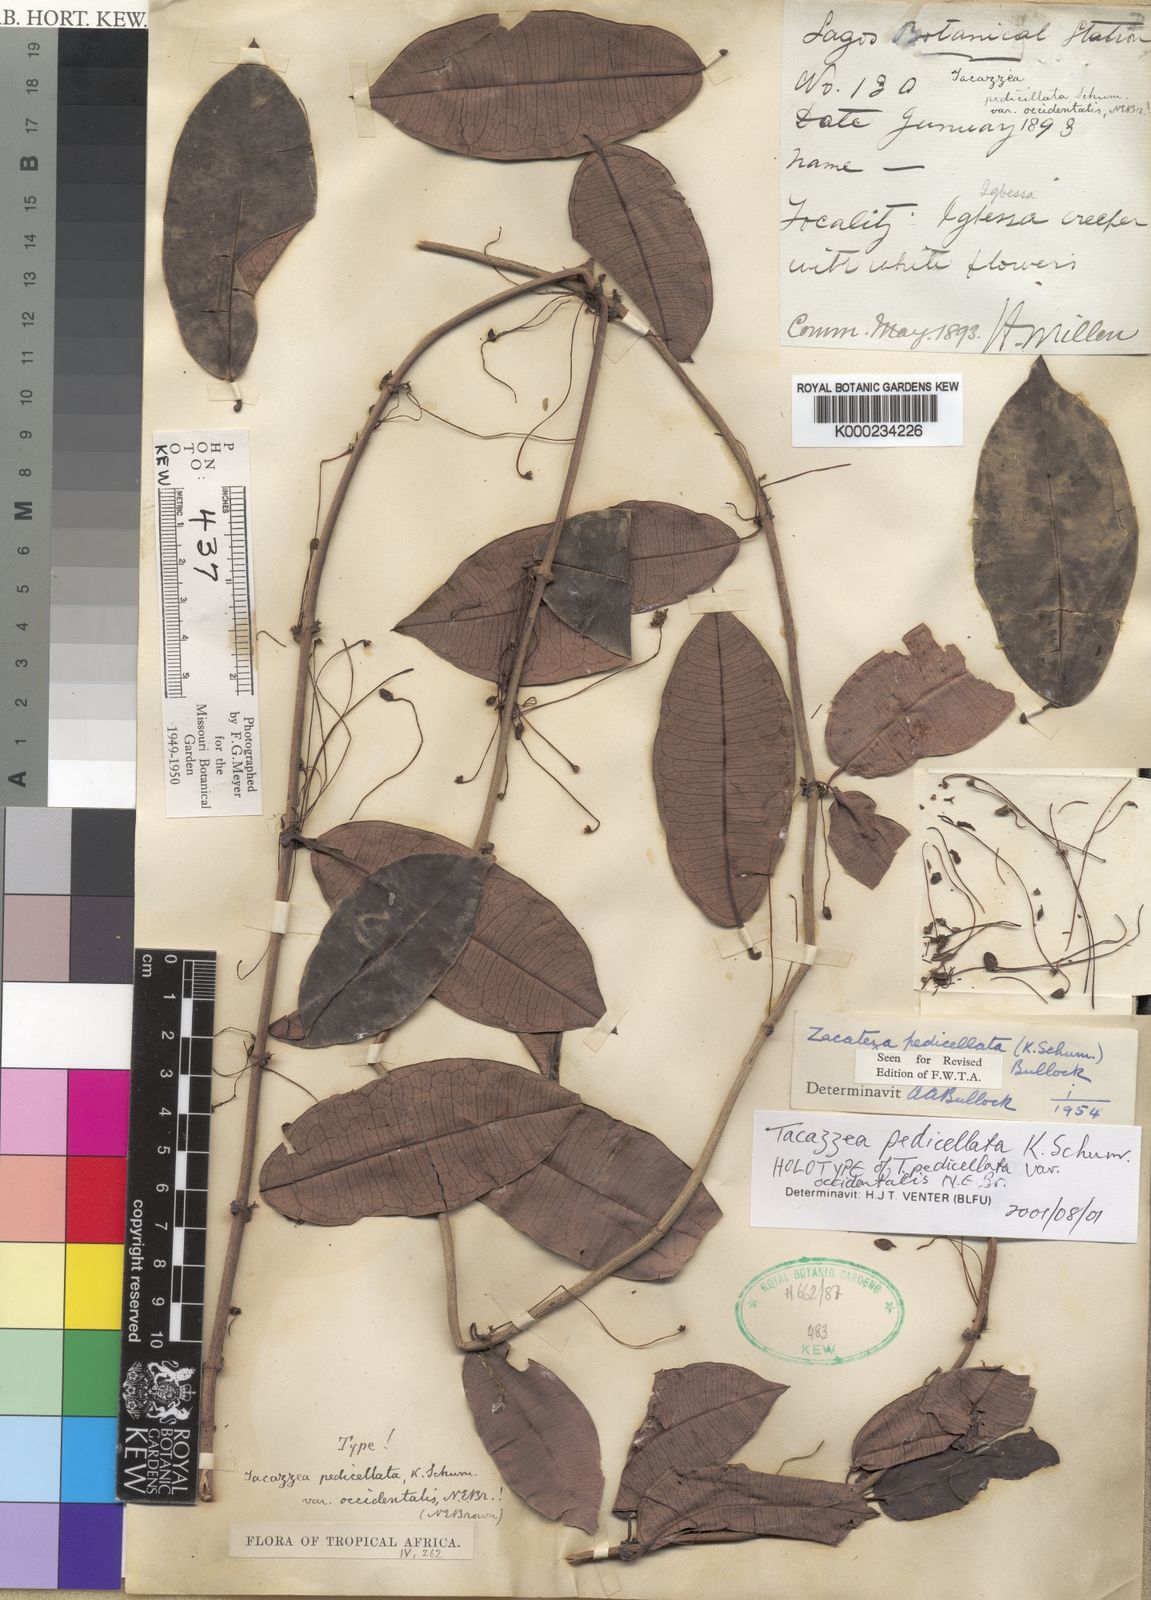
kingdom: Plantae
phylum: Tracheophyta
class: Magnoliopsida
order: Gentianales
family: Apocynaceae
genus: Zacateza
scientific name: Zacateza pedicellata
